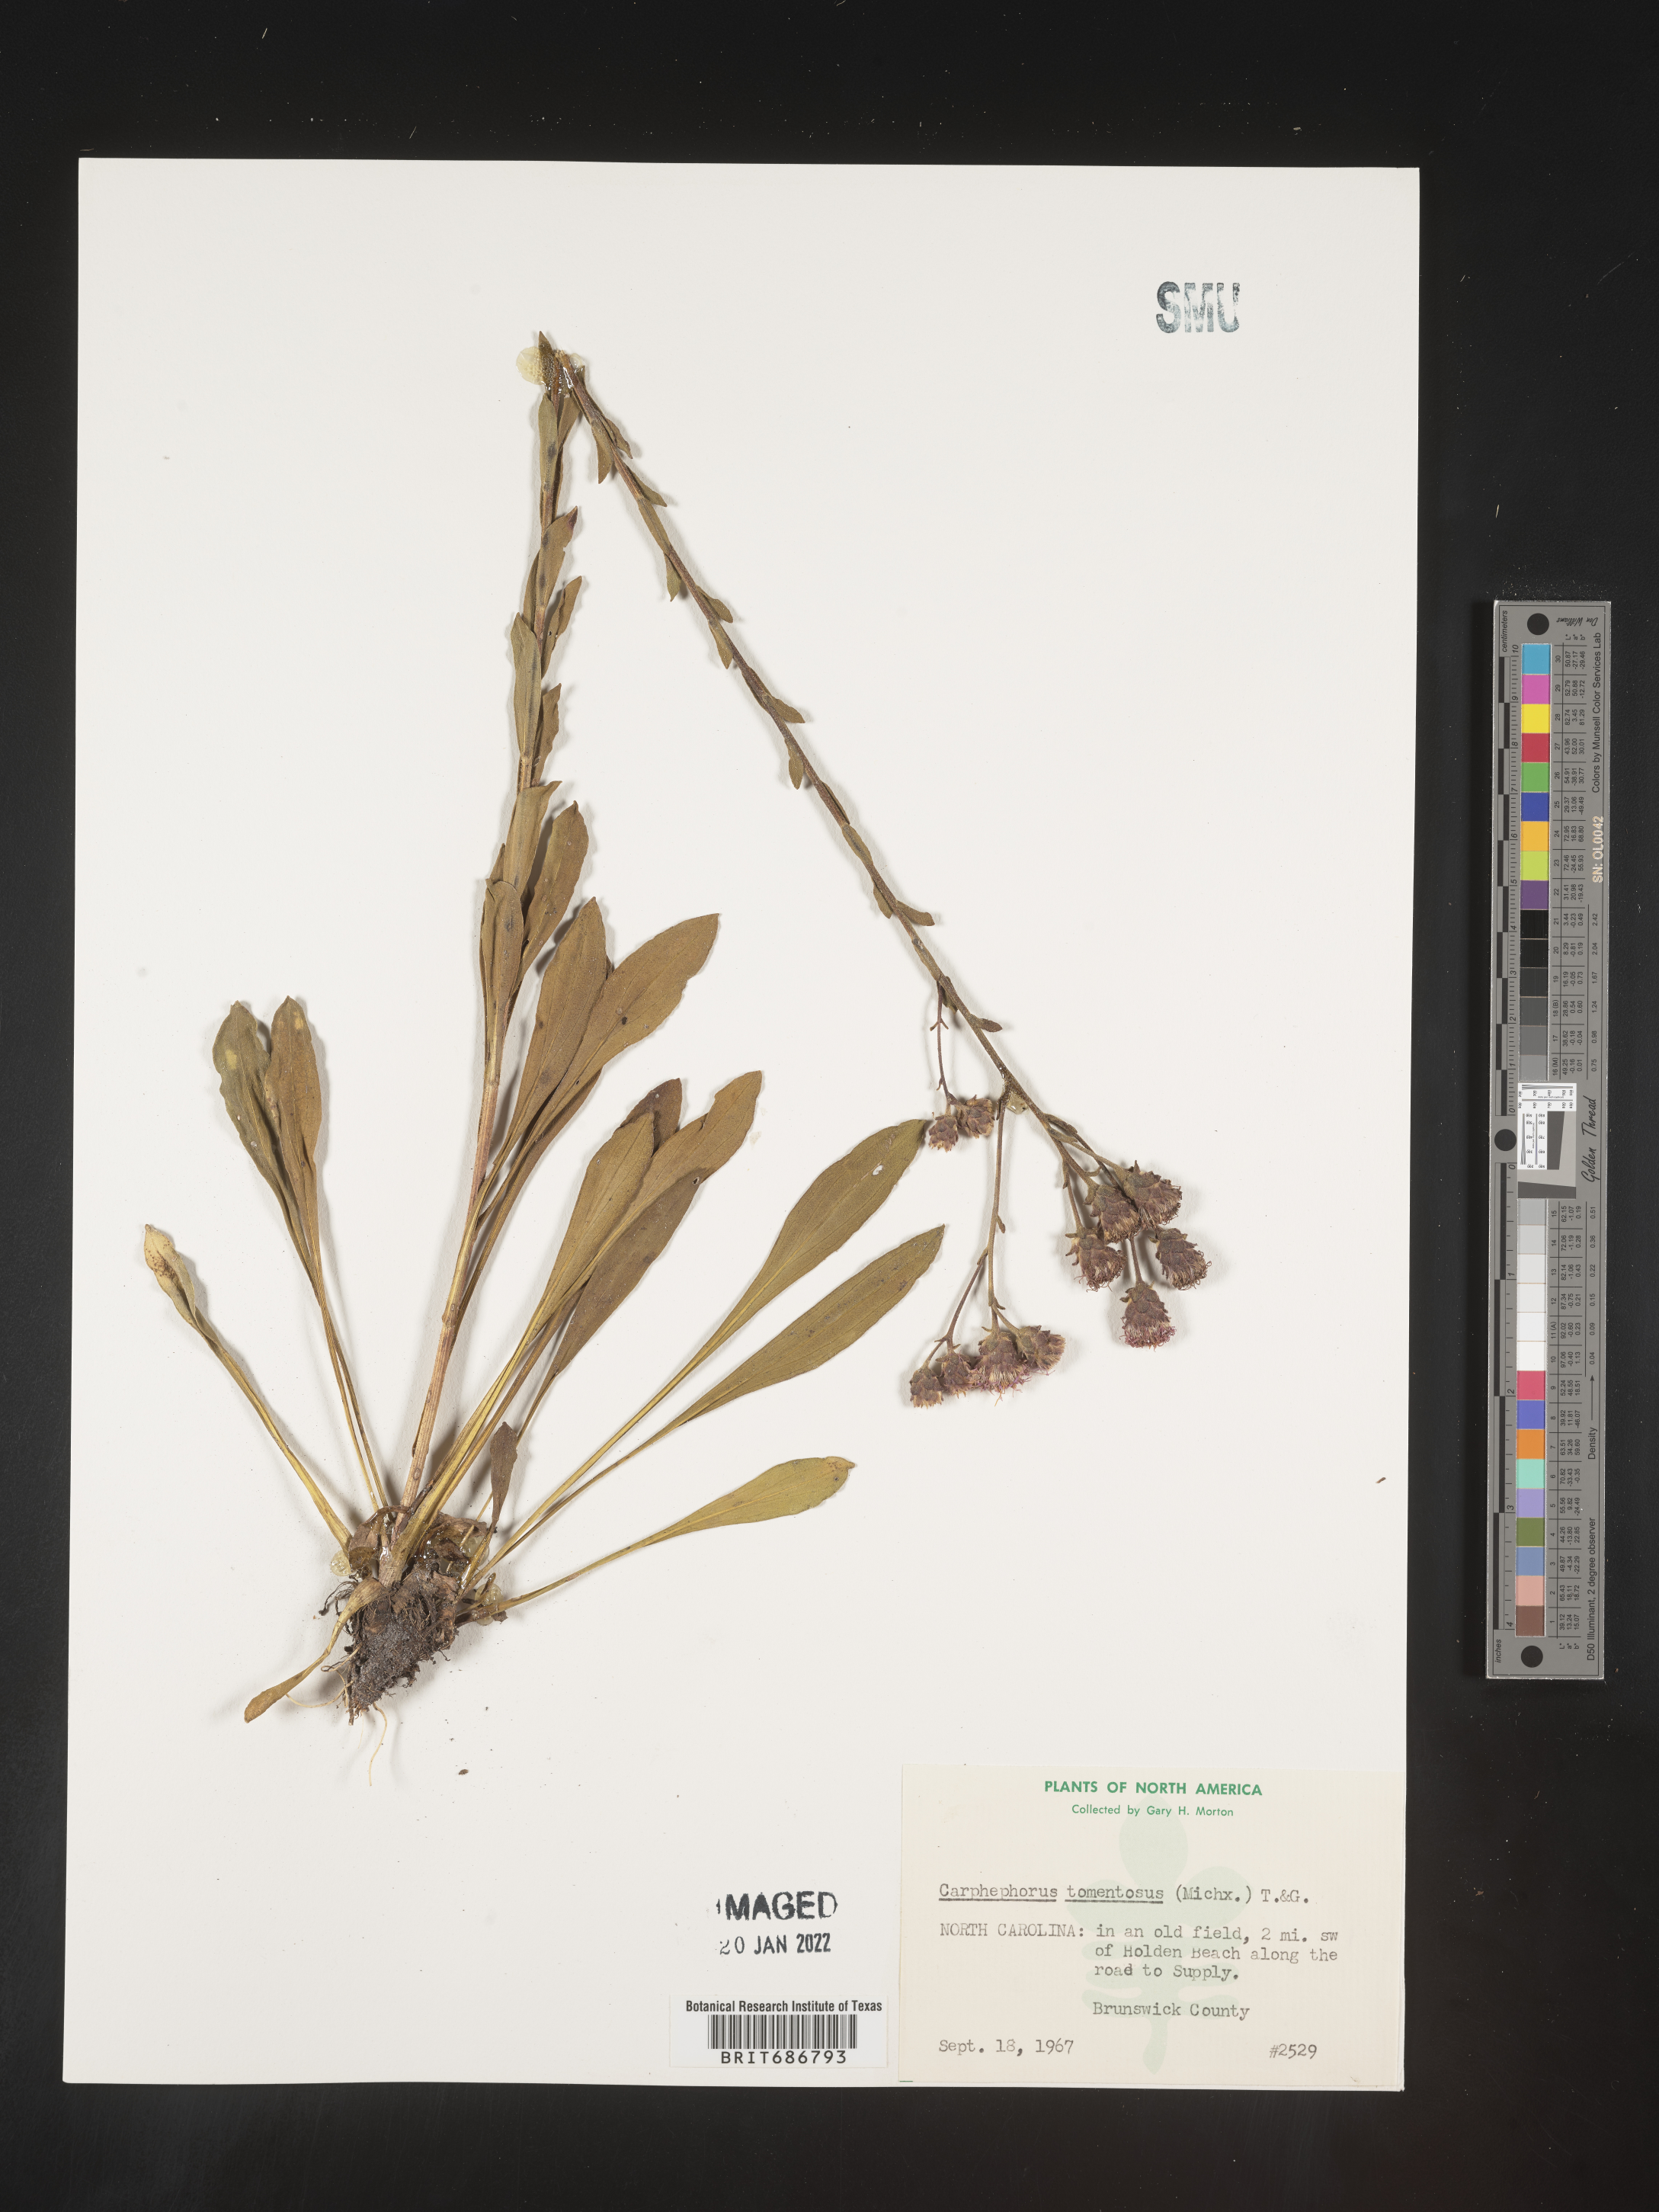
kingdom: Plantae
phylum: Tracheophyta
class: Magnoliopsida
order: Asterales
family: Asteraceae
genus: Carphephorus
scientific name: Carphephorus tomentosus
